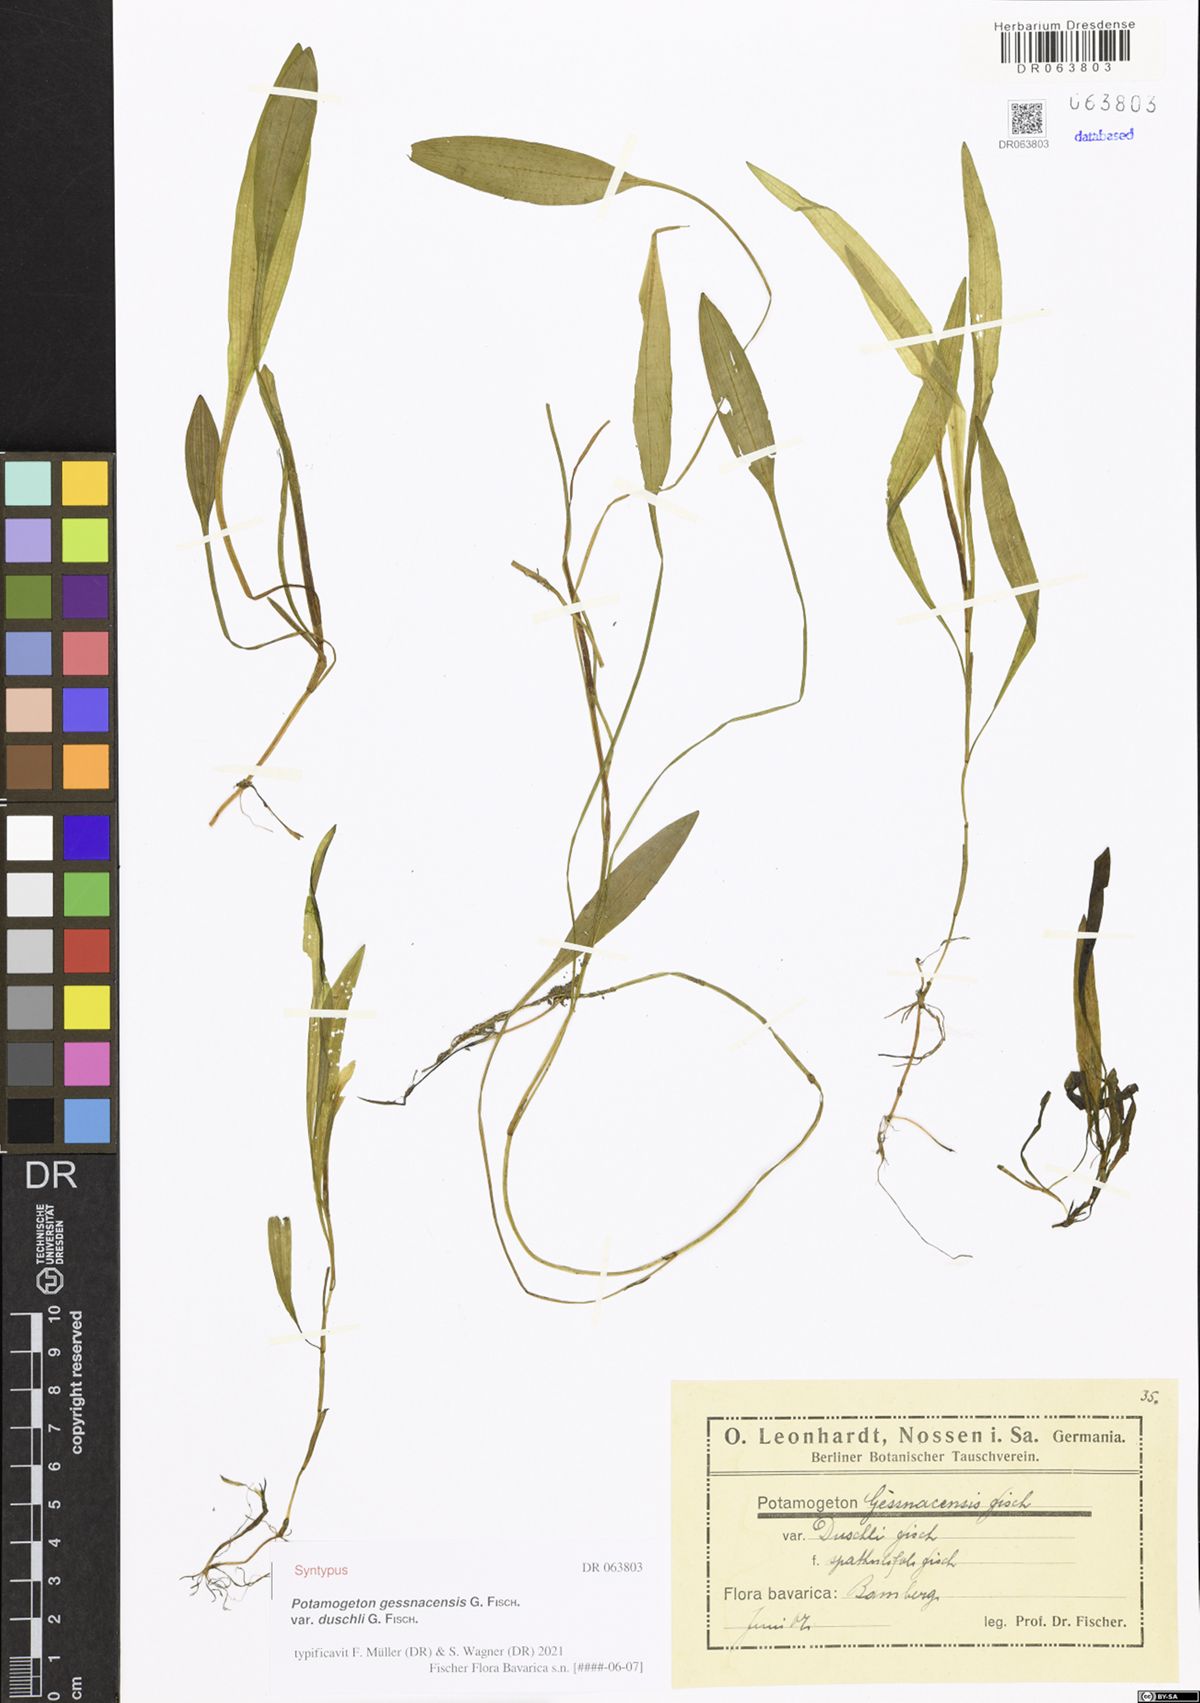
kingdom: Plantae
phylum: Tracheophyta
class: Liliopsida
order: Alismatales
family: Potamogetonaceae
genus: Potamogeton
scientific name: Potamogeton gessnacensis
